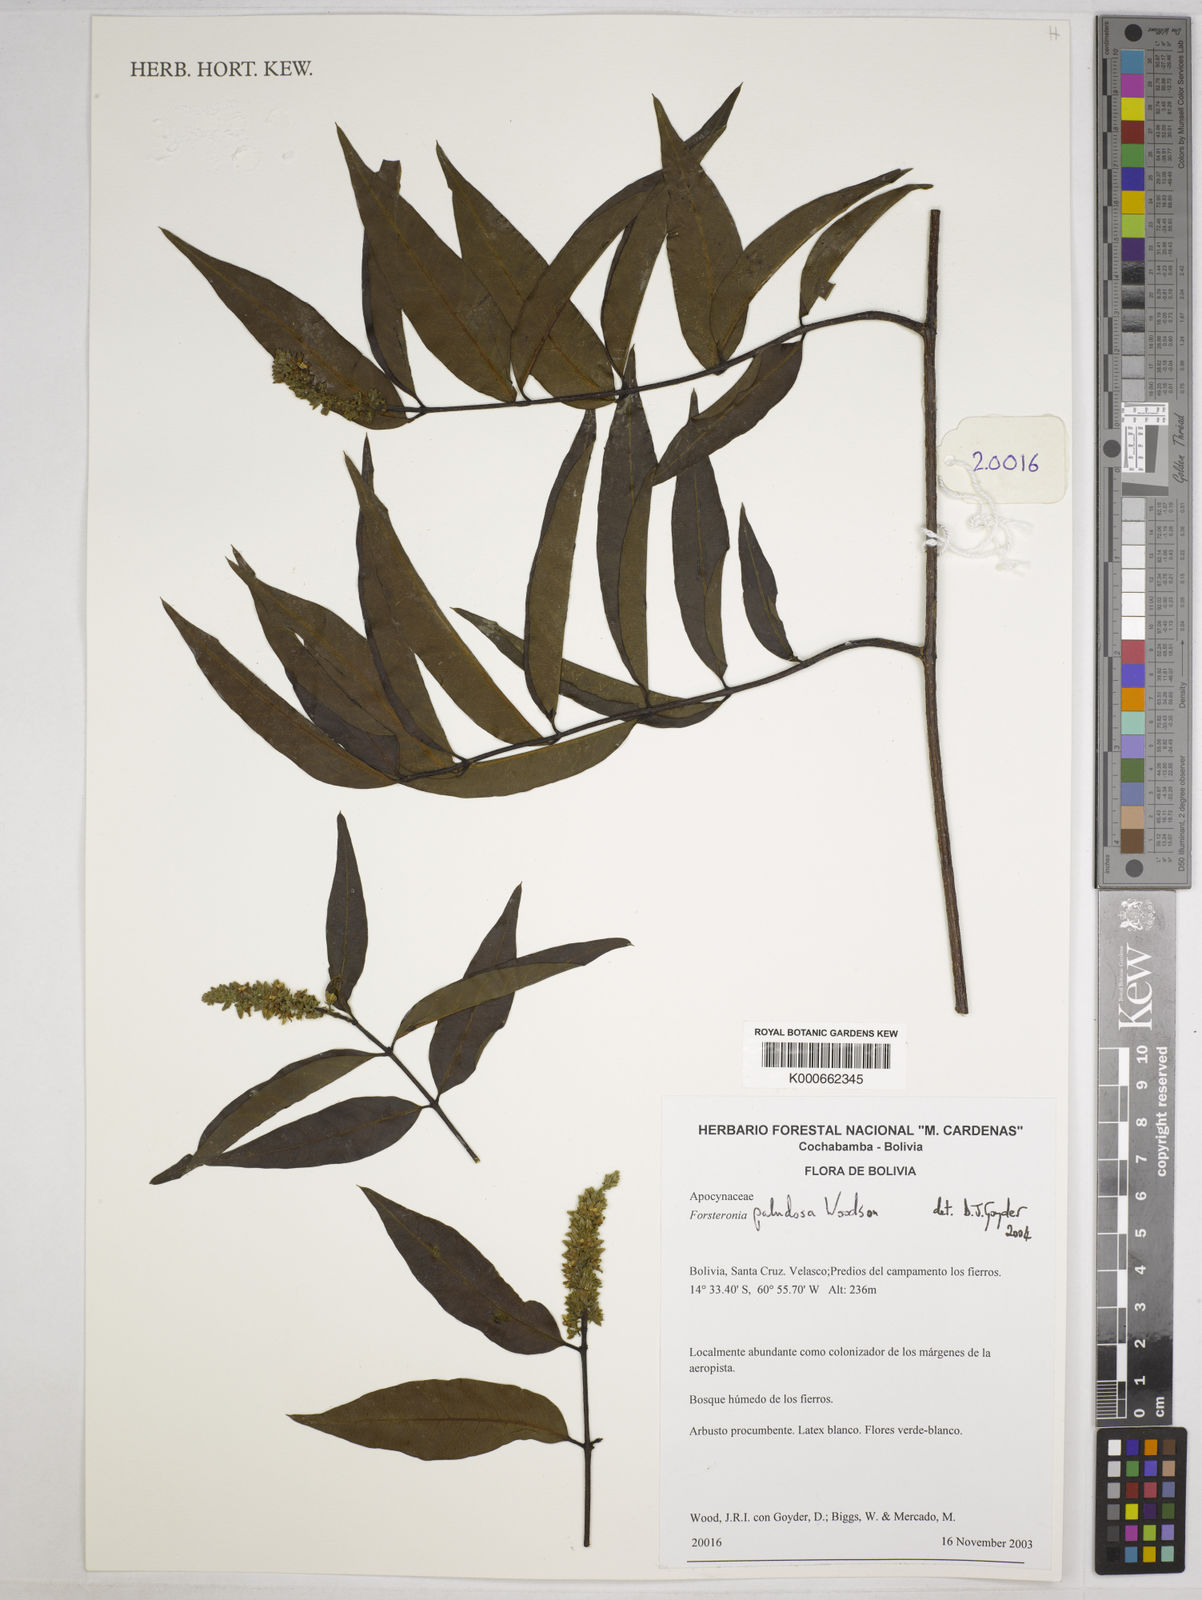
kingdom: Plantae
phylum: Tracheophyta
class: Magnoliopsida
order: Gentianales
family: Apocynaceae
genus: Forsteronia
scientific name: Forsteronia paludosa
